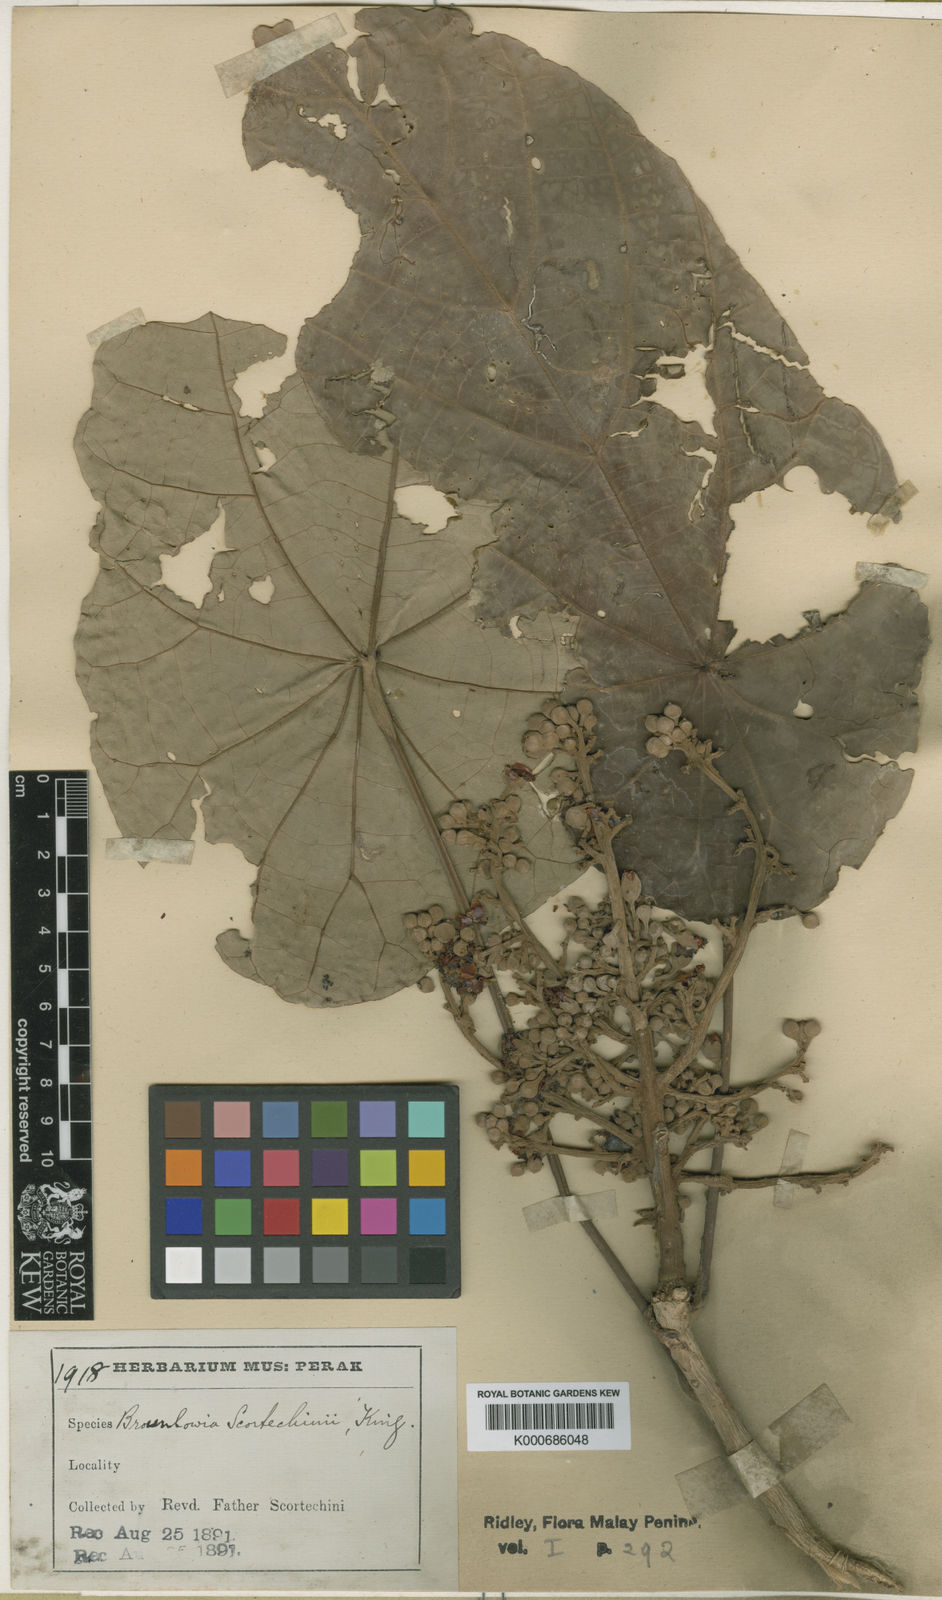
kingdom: Plantae
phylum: Tracheophyta
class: Magnoliopsida
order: Malvales
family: Malvaceae
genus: Brownlowia
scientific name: Brownlowia helferiana
